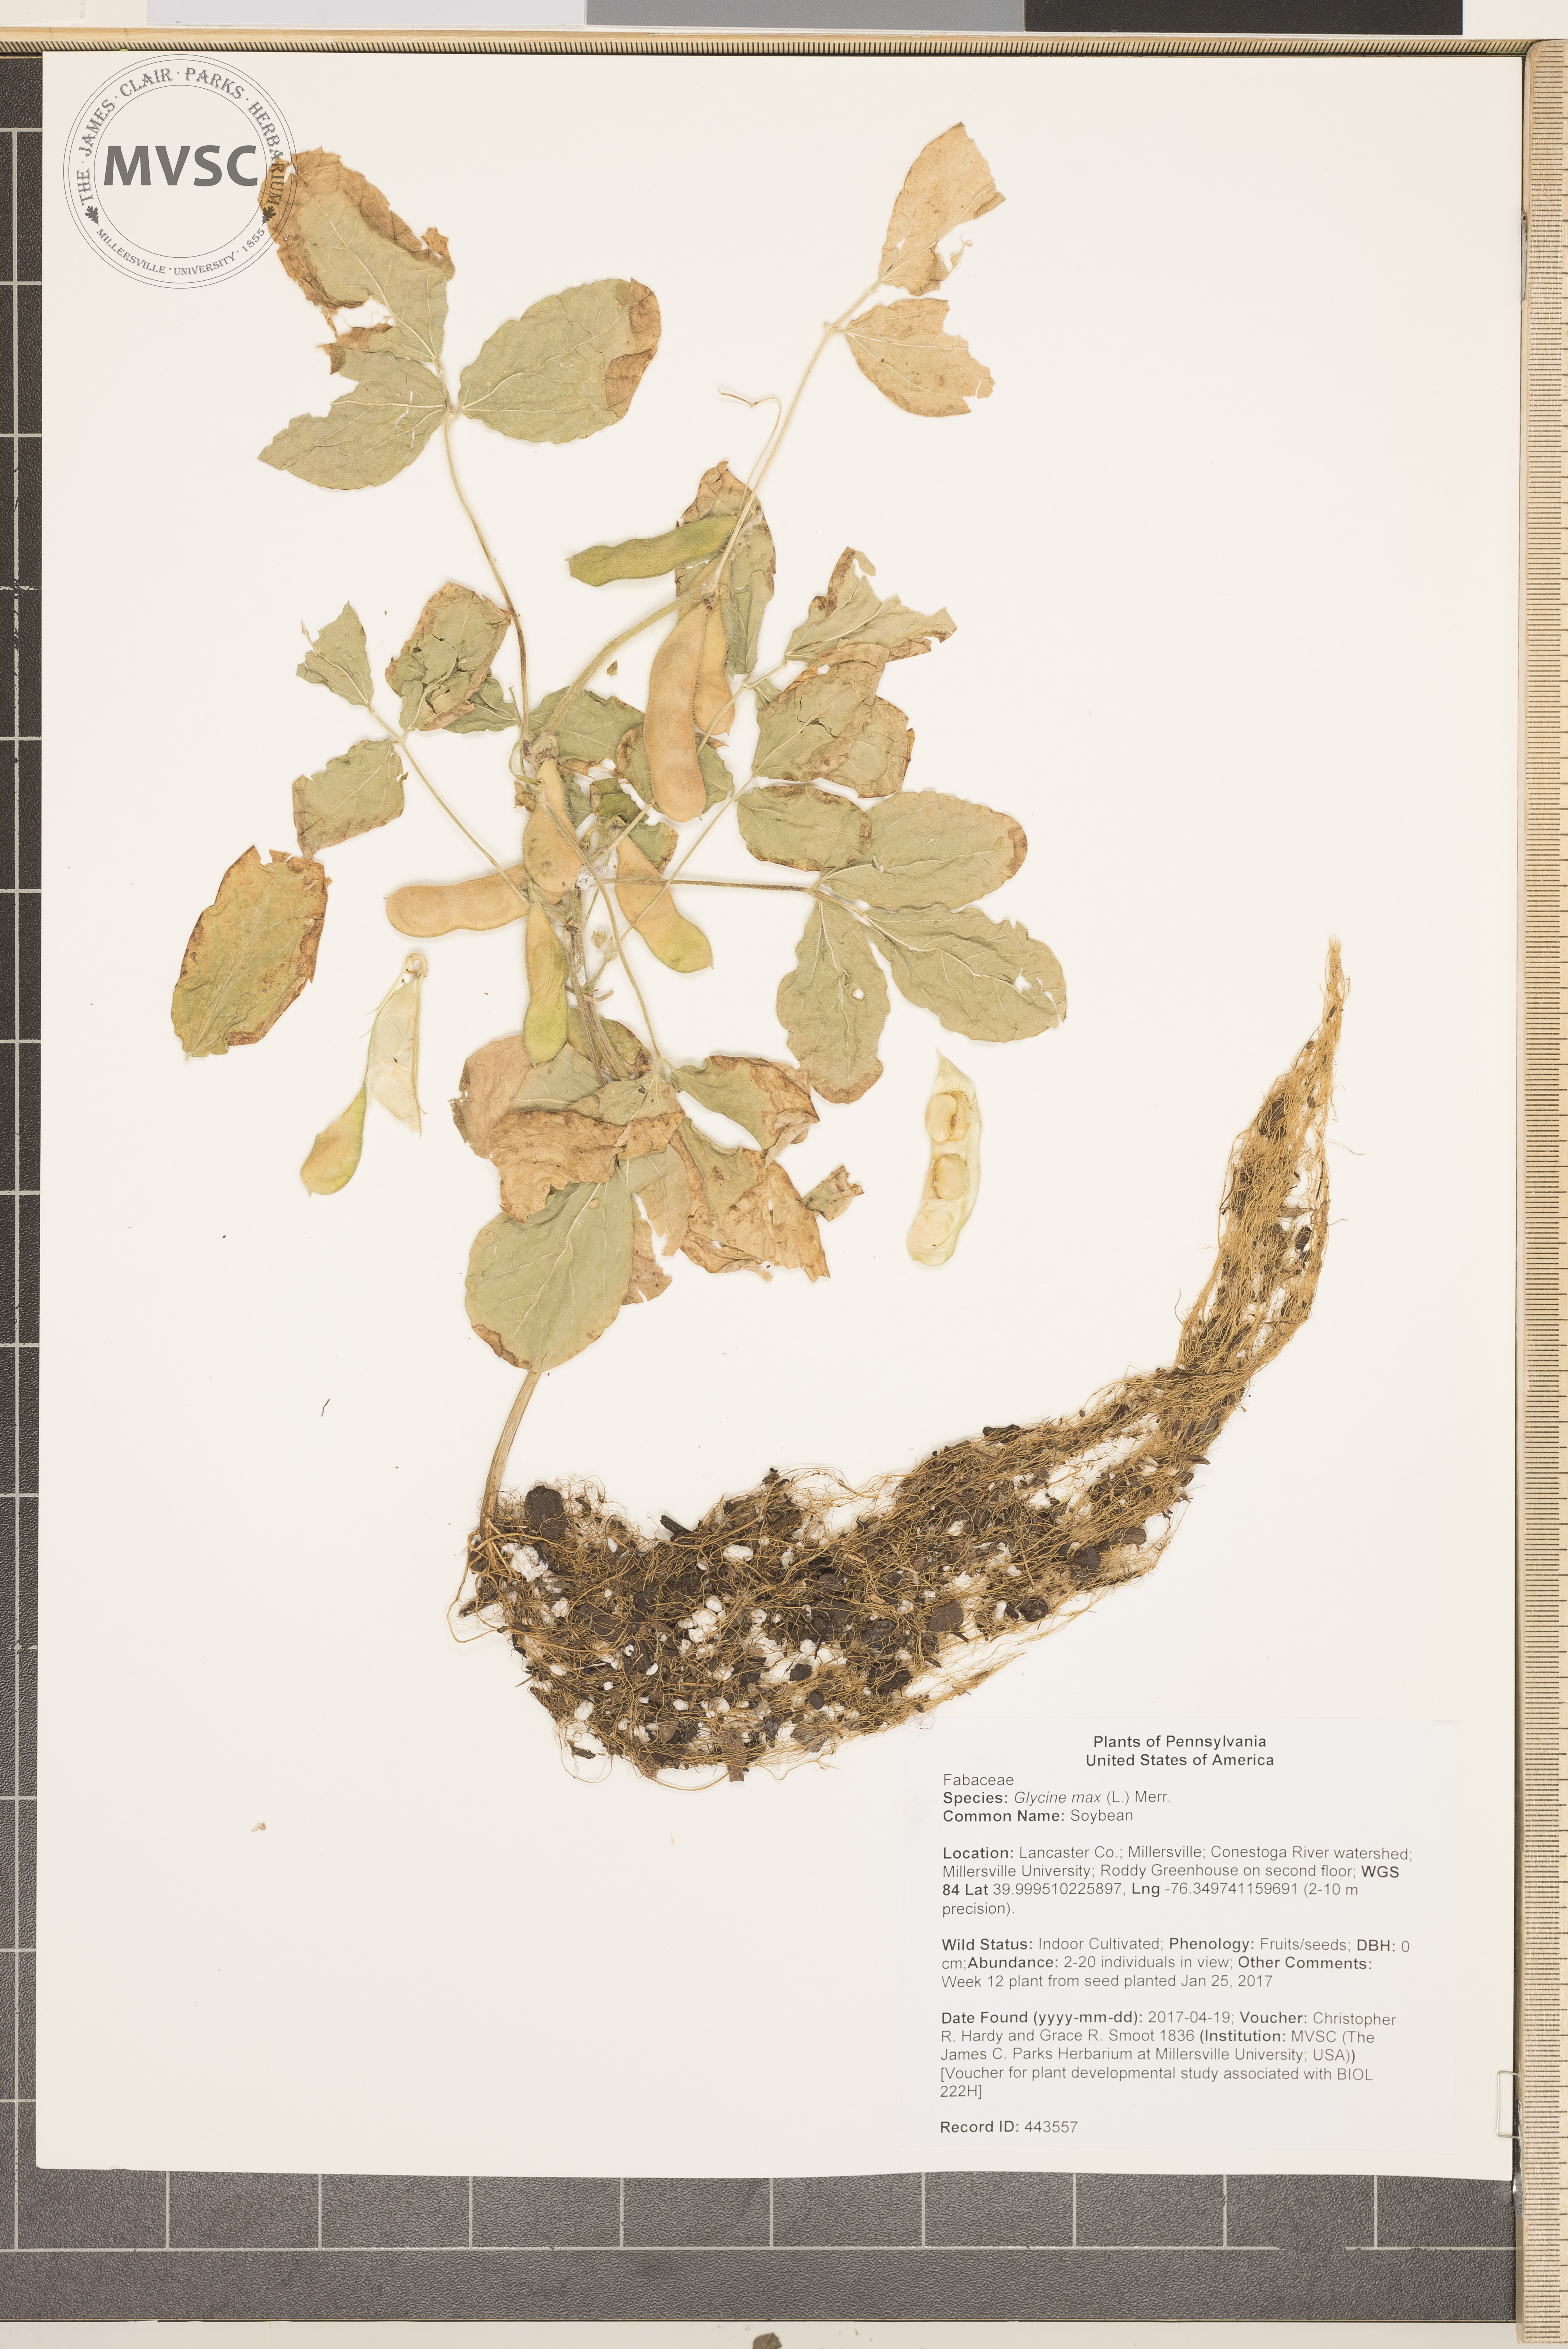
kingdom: Plantae
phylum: Tracheophyta
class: Magnoliopsida
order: Fabales
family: Fabaceae
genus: Glycine
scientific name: Glycine max
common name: Soybean
